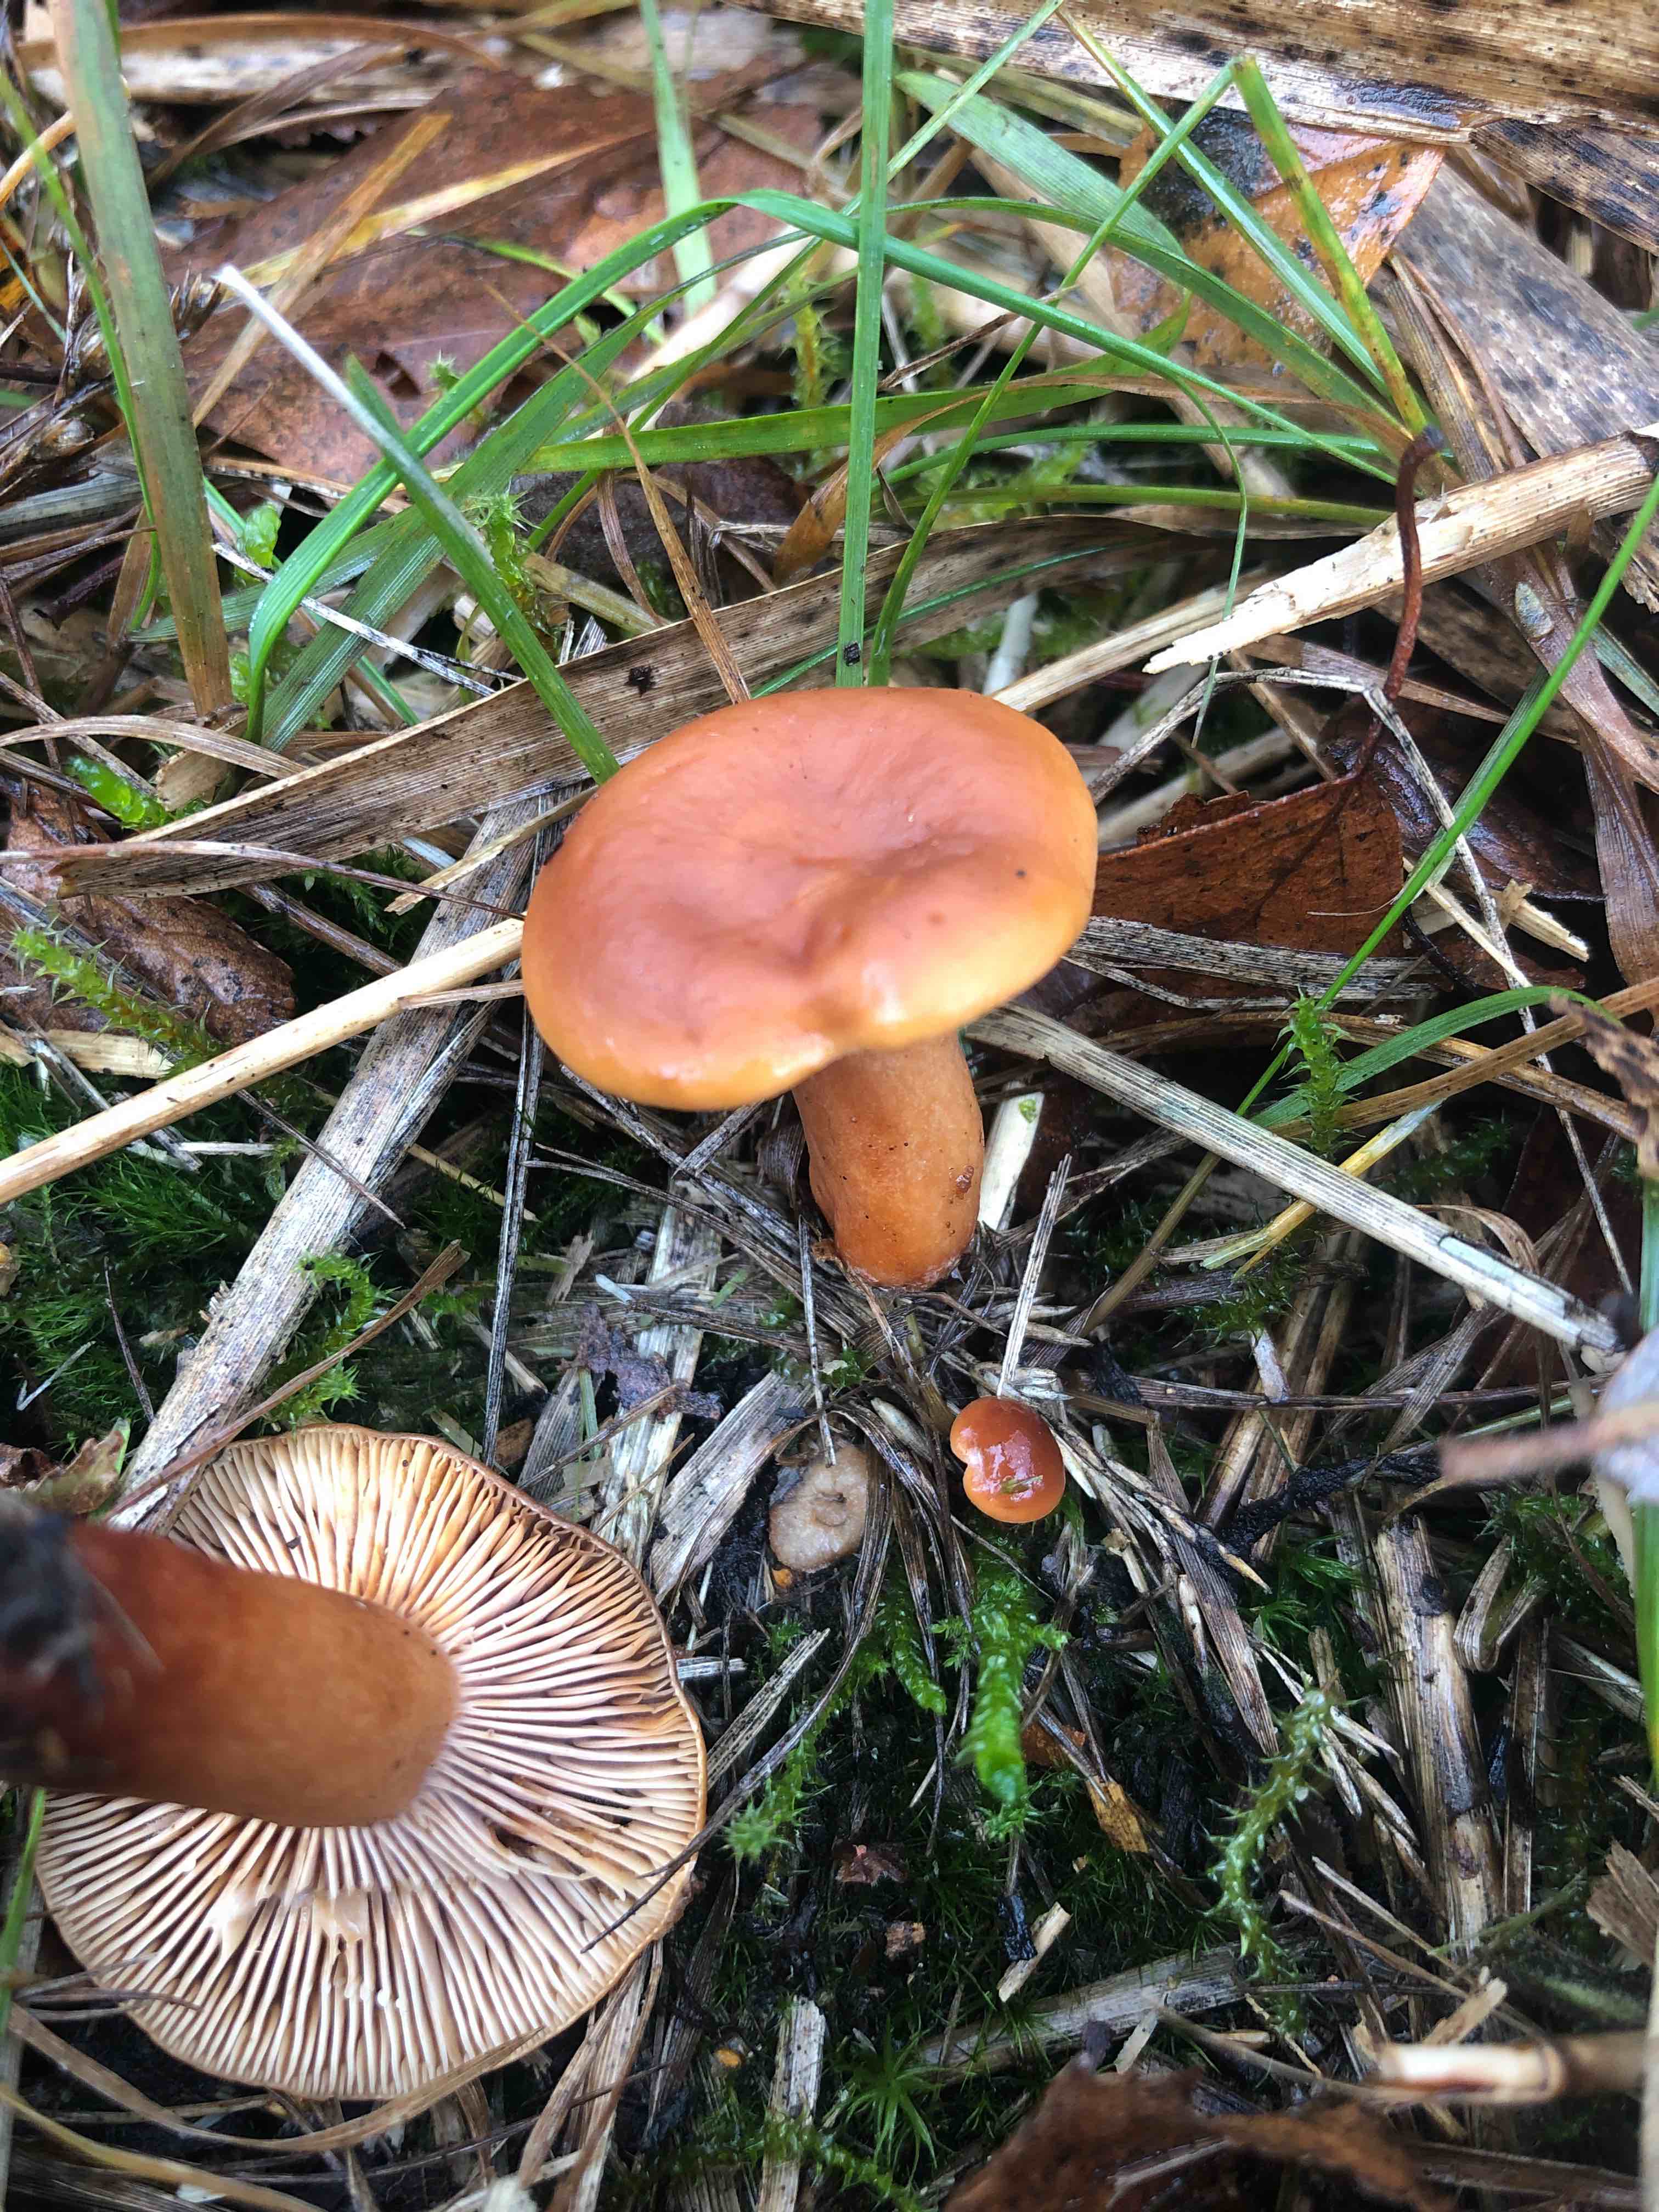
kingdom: Fungi
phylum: Basidiomycota
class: Agaricomycetes
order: Russulales
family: Russulaceae
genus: Lactarius
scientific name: Lactarius aurantiacus
